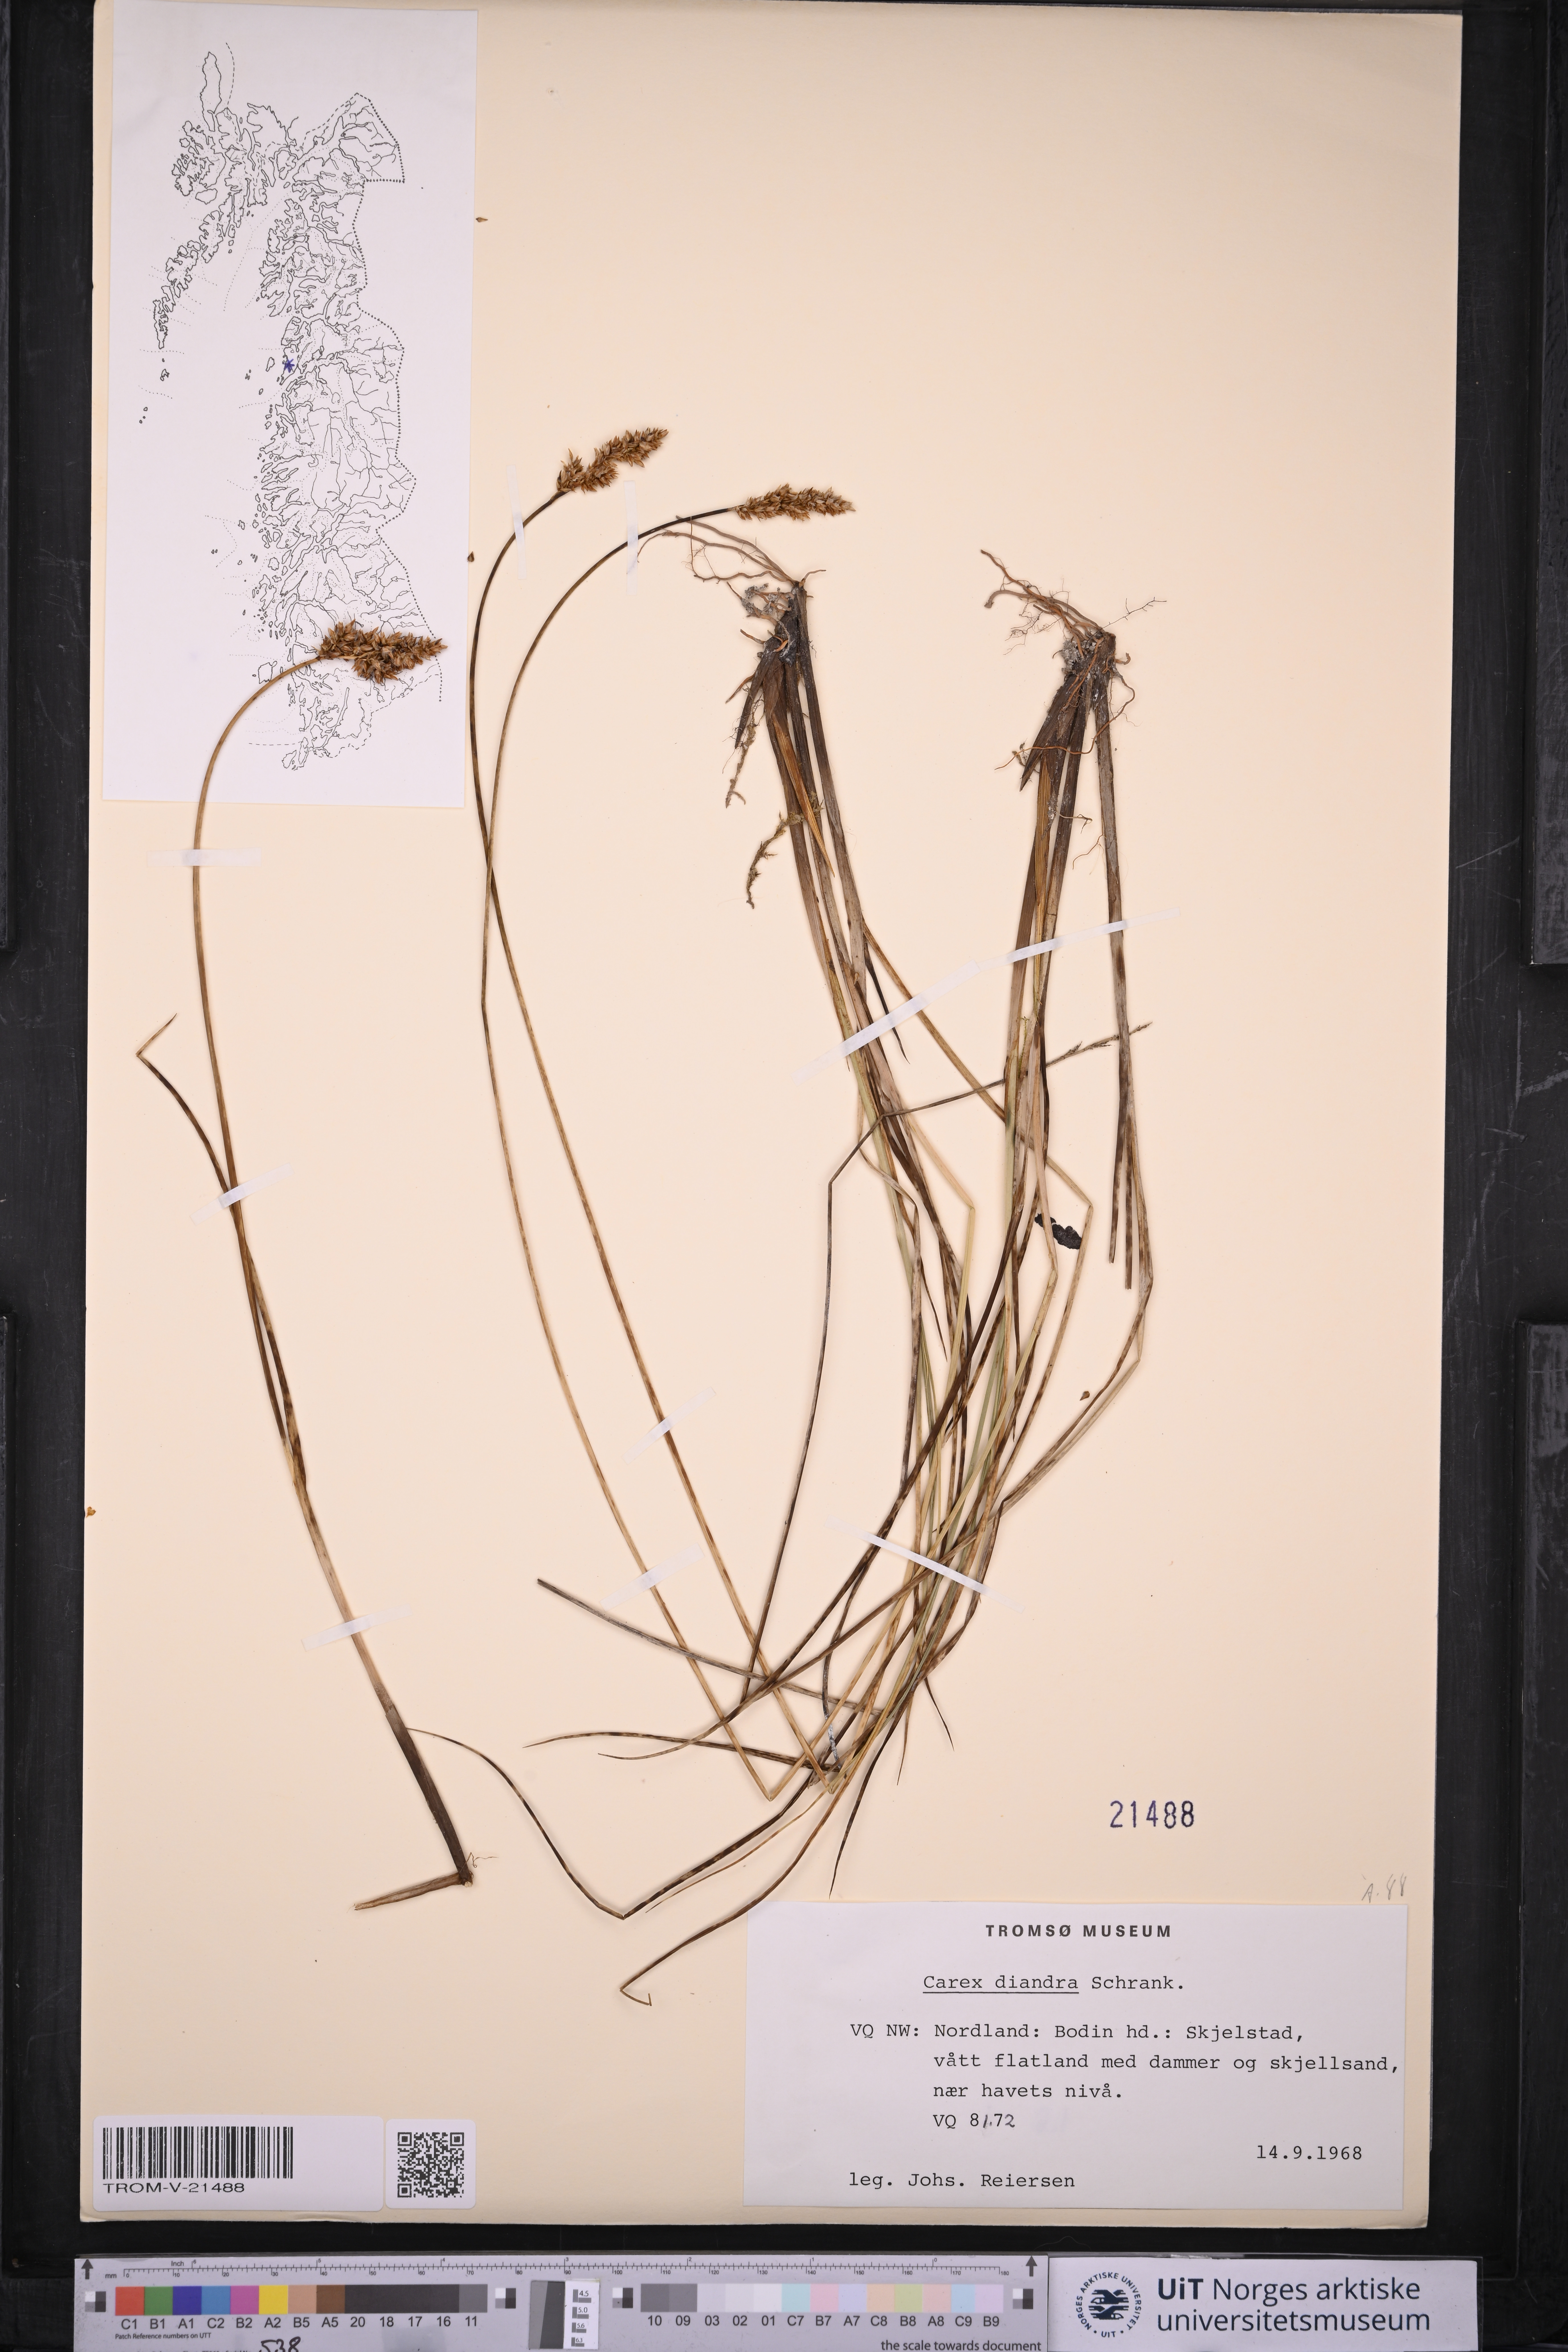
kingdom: Plantae
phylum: Tracheophyta
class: Liliopsida
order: Poales
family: Cyperaceae
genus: Carex
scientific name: Carex diandra
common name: Lesser tussock-sedge
